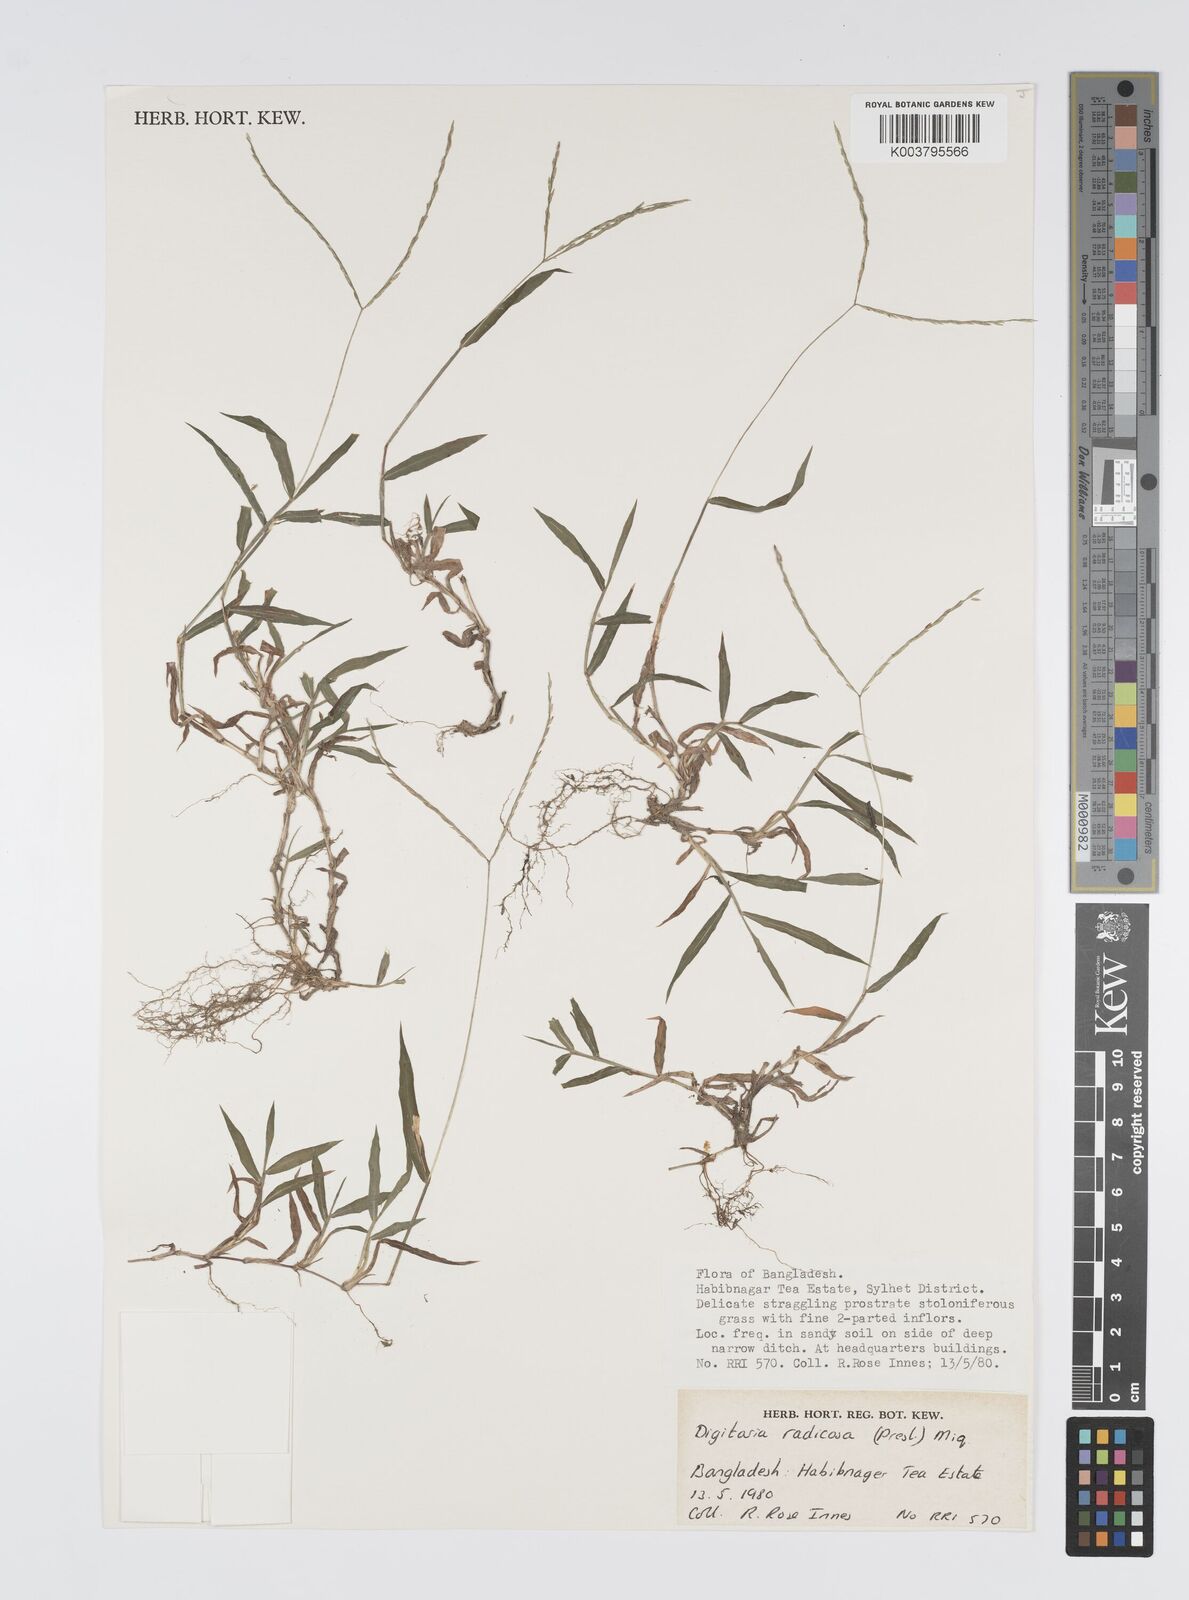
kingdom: Plantae
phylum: Tracheophyta
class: Liliopsida
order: Poales
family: Poaceae
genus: Digitaria
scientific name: Digitaria radicosa
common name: Trailing crabgrass
